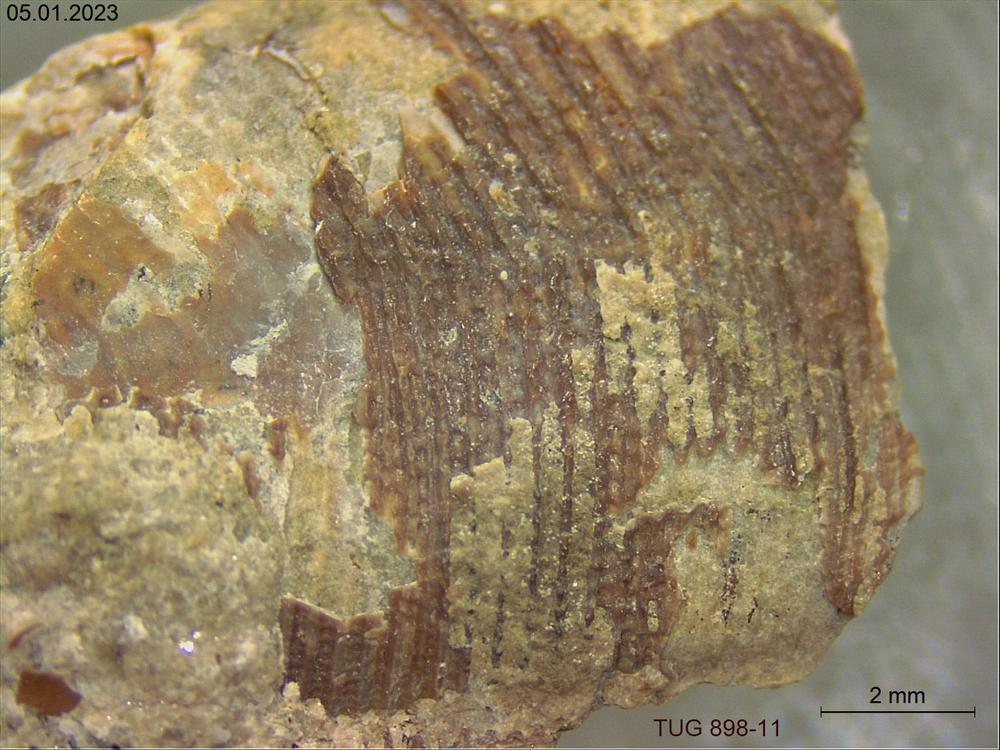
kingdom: Animalia
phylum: Cnidaria
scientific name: Cnidaria
